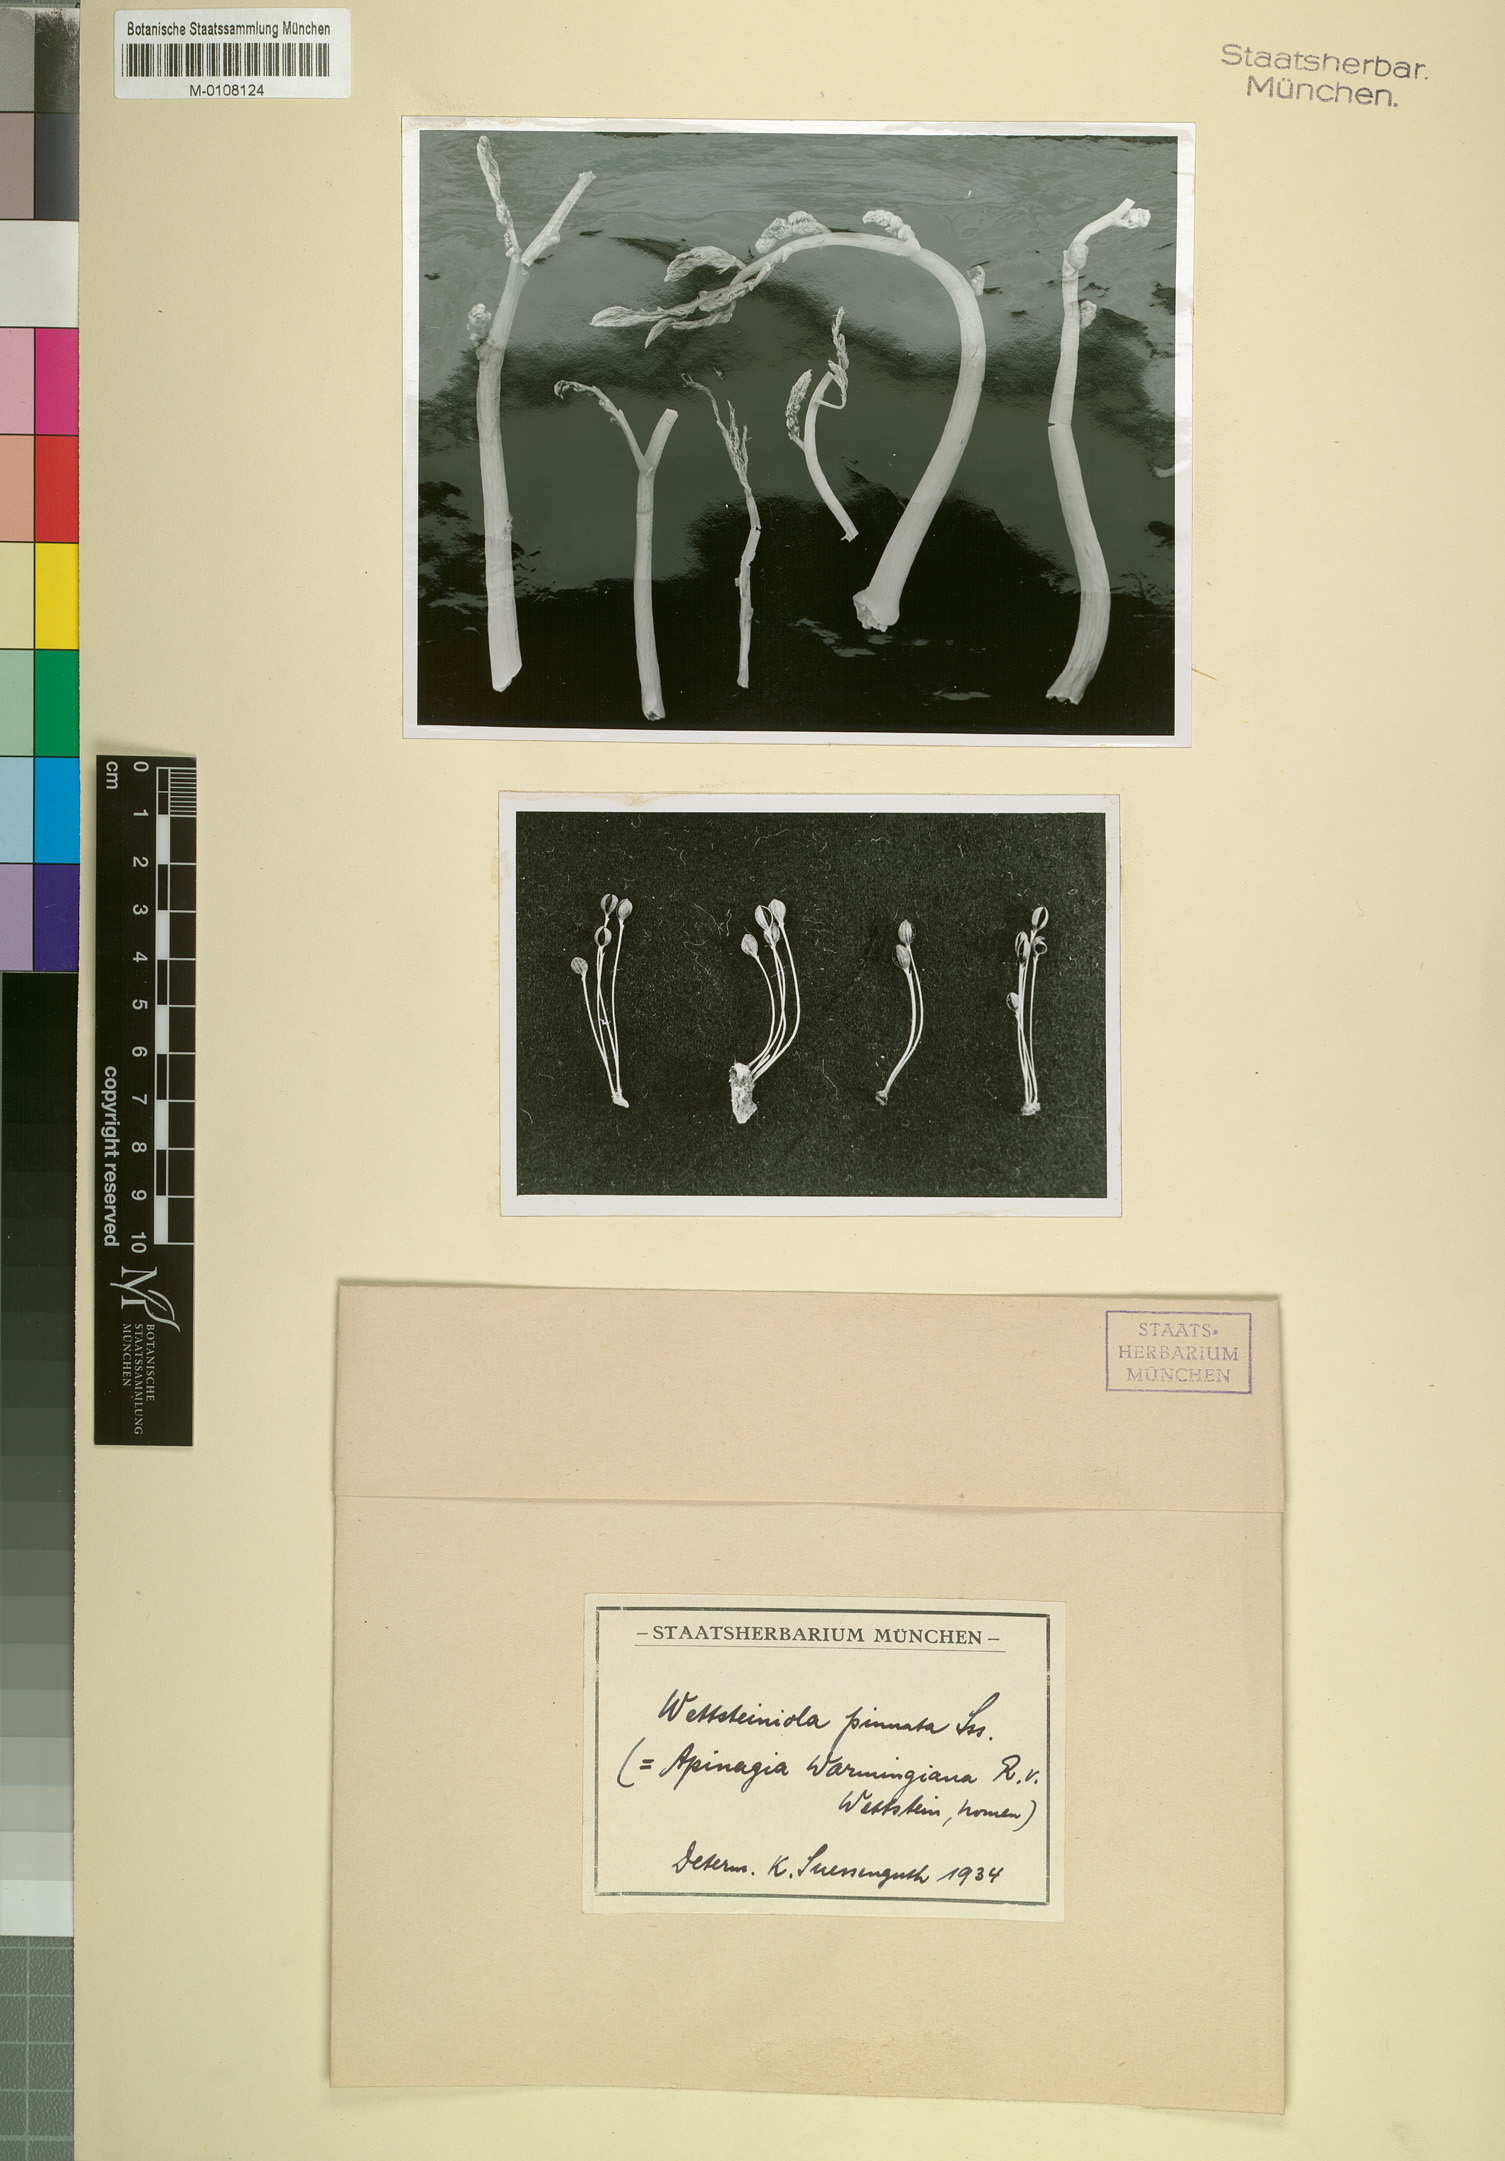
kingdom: Plantae
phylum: Tracheophyta
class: Magnoliopsida
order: Malpighiales
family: Podostemaceae
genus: Wettsteiniola
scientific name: Wettsteiniola pinnata
